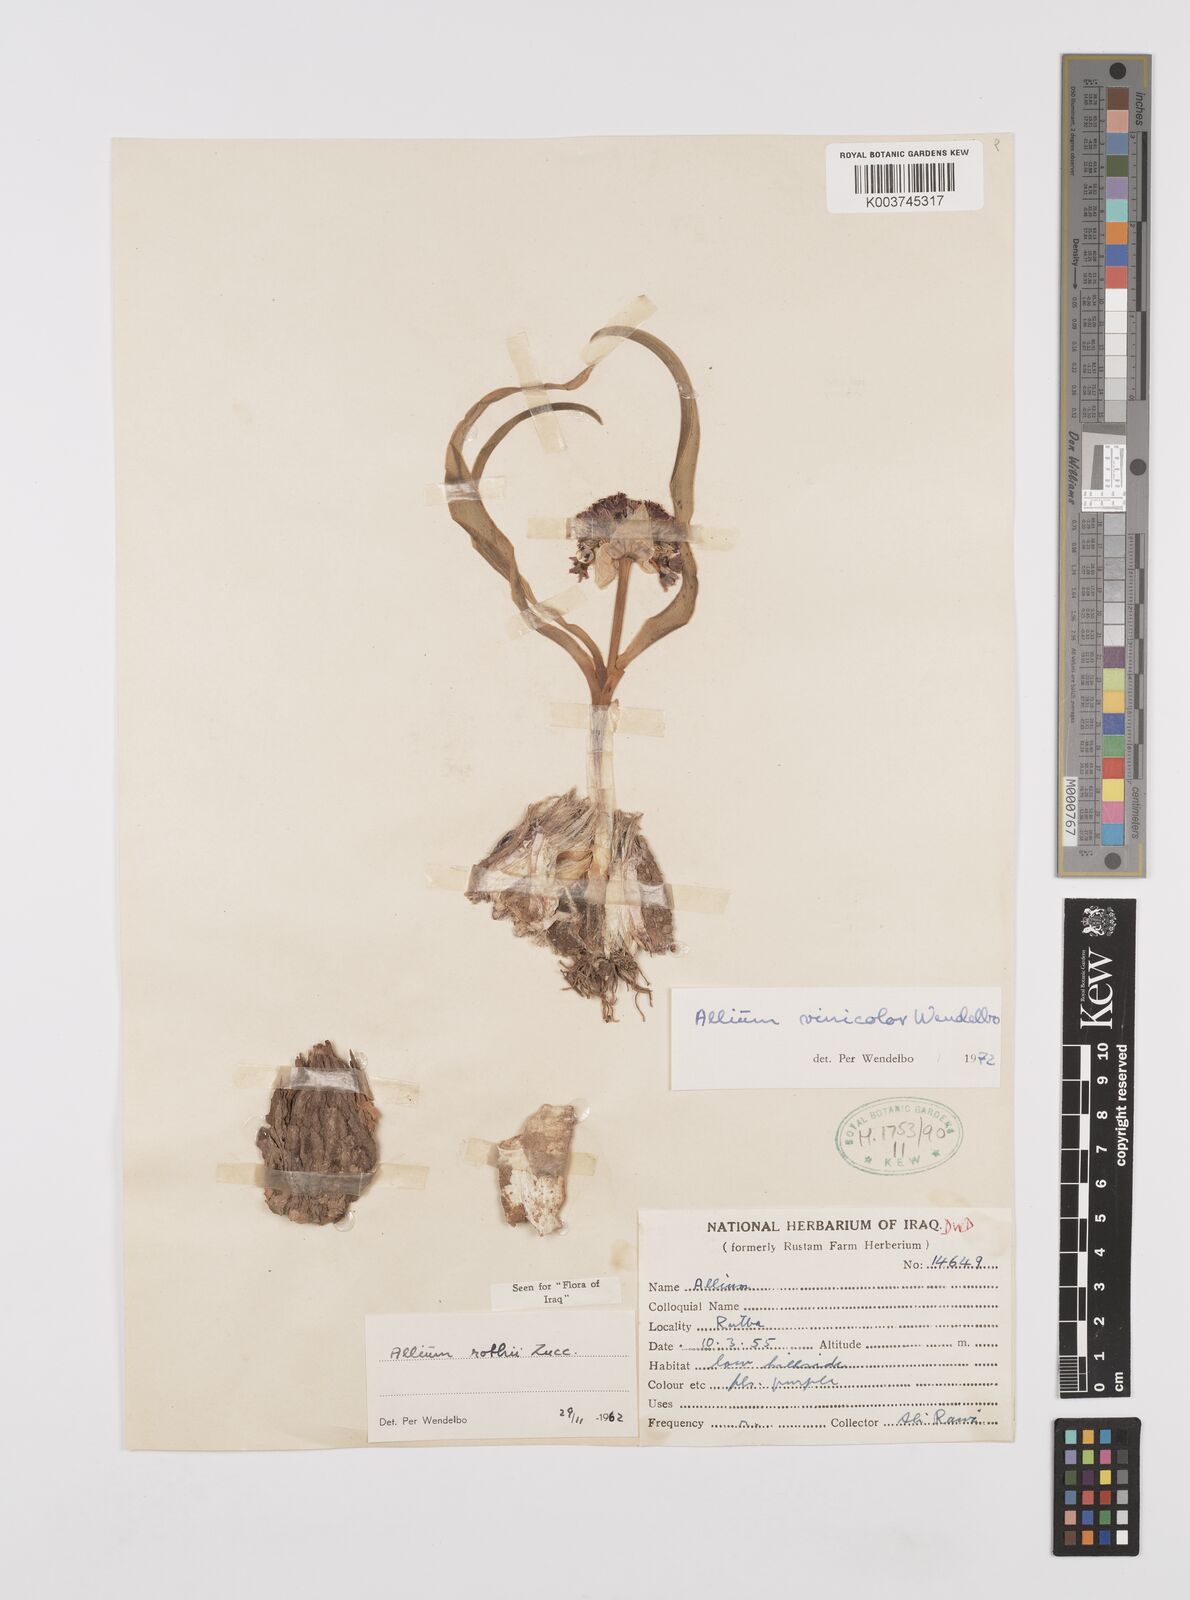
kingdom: Plantae
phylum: Tracheophyta
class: Liliopsida
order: Asparagales
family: Amaryllidaceae
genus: Allium
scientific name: Allium vinicolor
